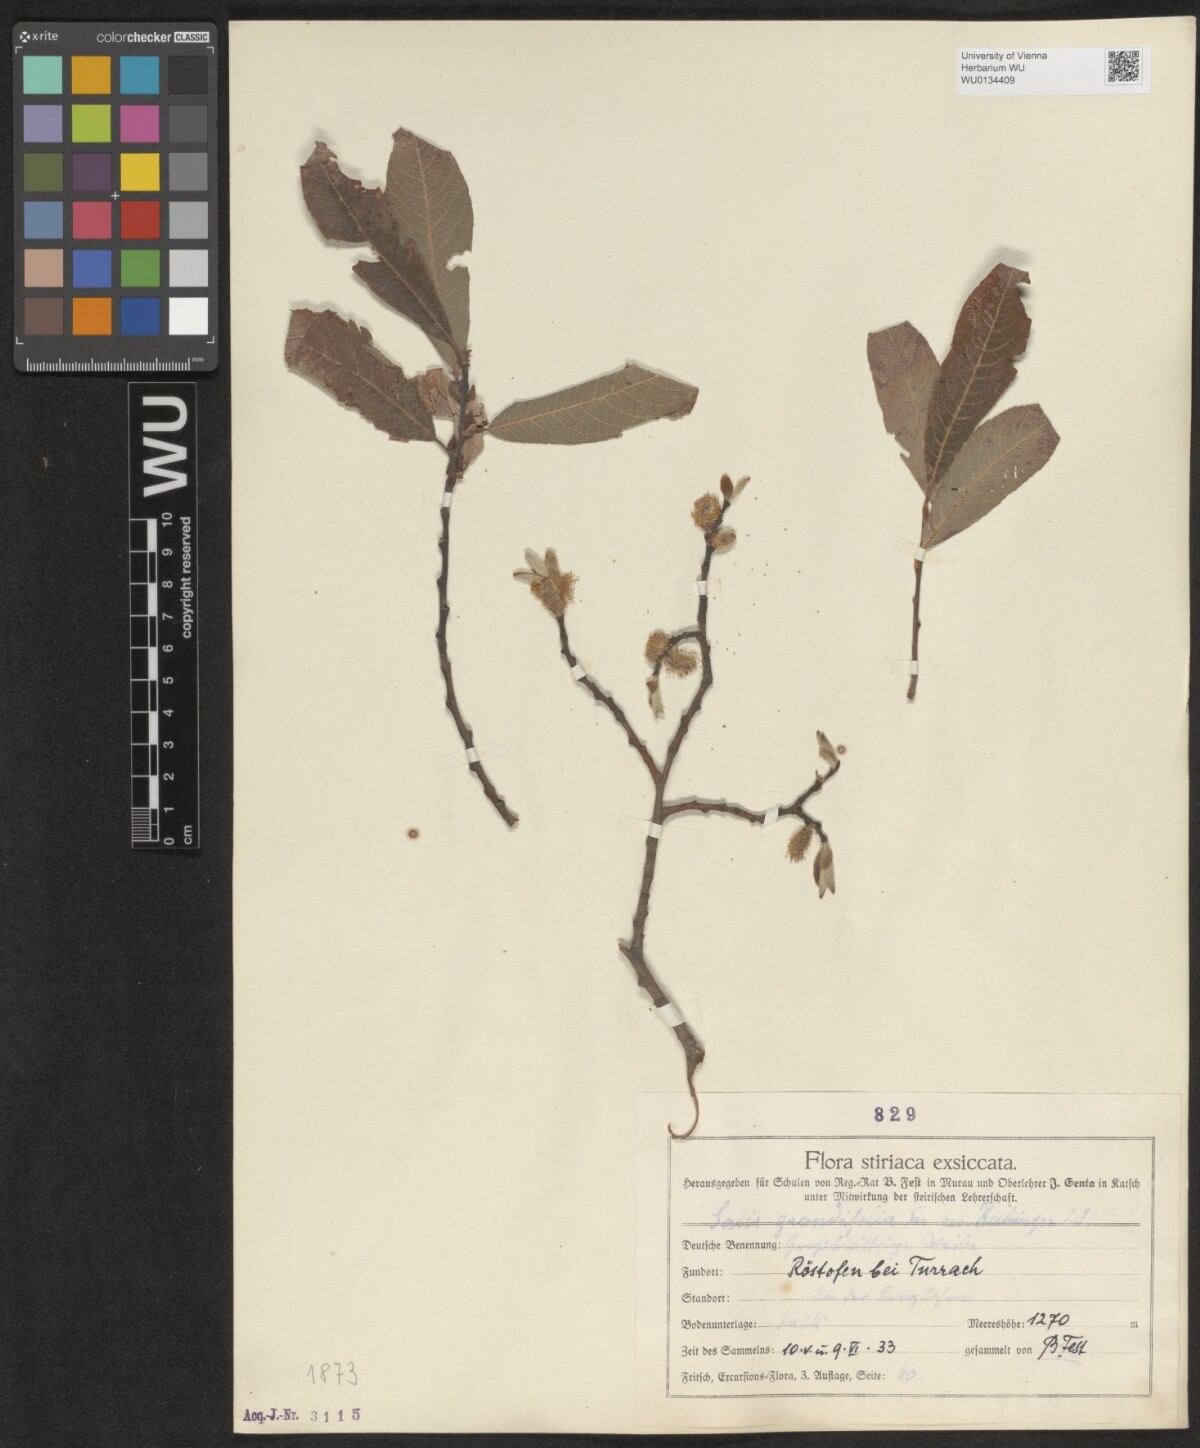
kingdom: Plantae
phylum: Tracheophyta
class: Magnoliopsida
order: Malpighiales
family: Salicaceae
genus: Salix
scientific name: Salix appendiculata
